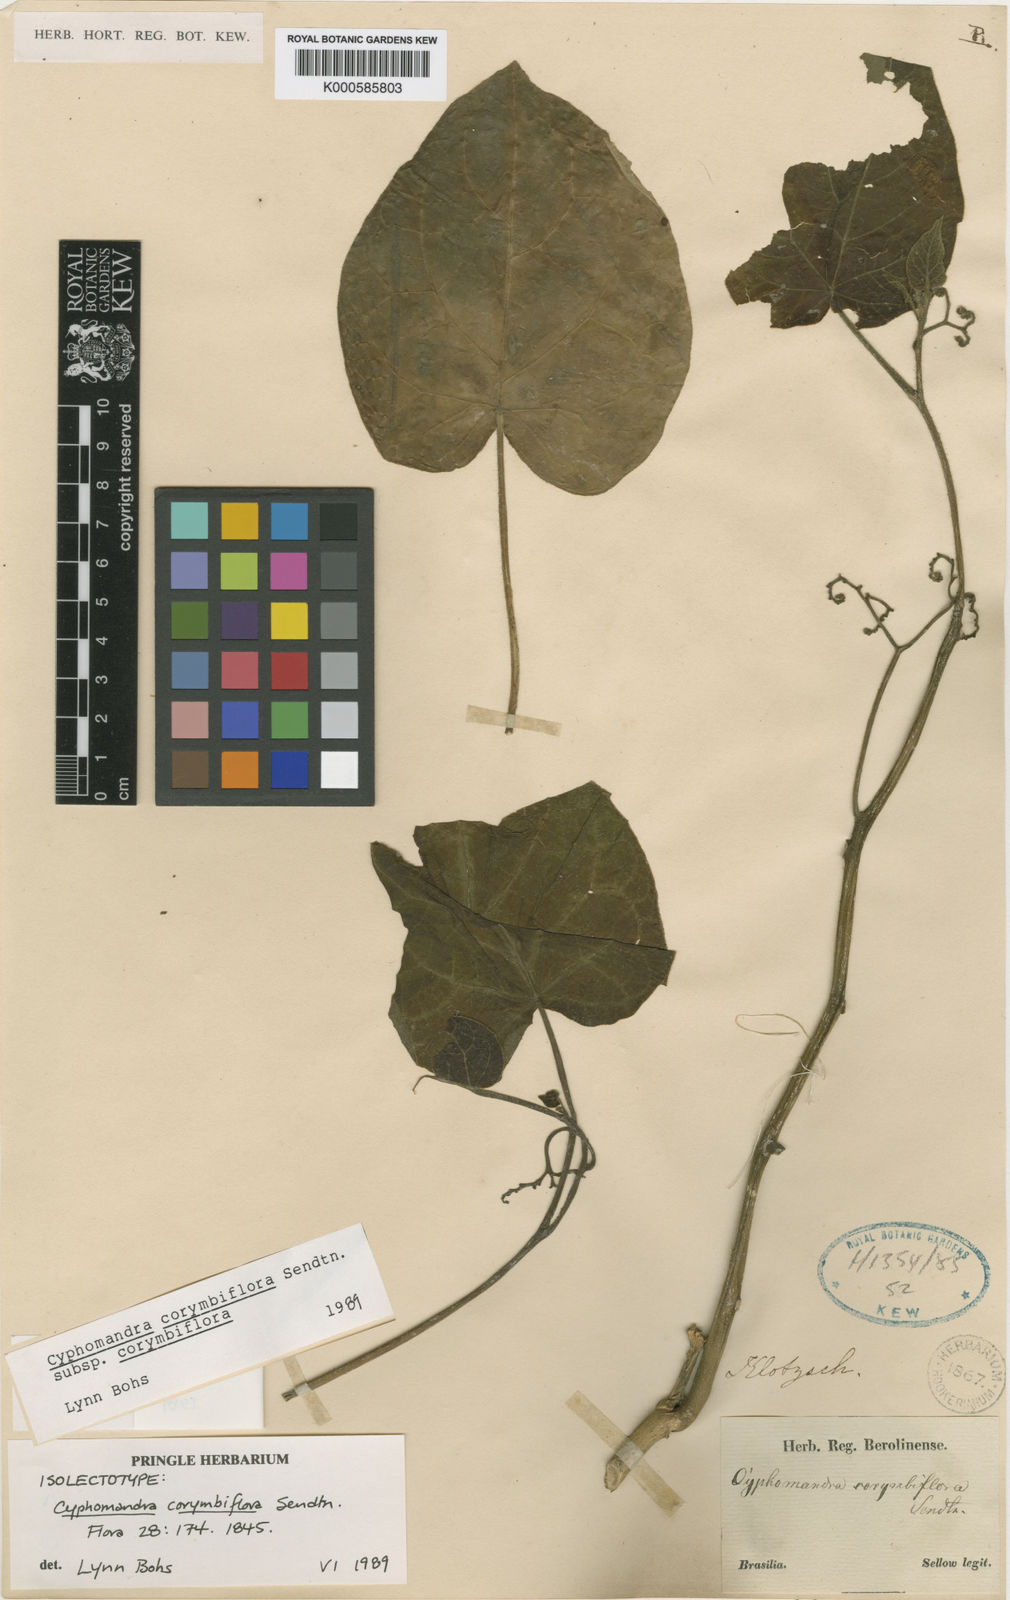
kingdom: Plantae
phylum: Tracheophyta
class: Magnoliopsida
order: Solanales
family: Solanaceae
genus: Solanum
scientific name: Solanum corymbiflorum
